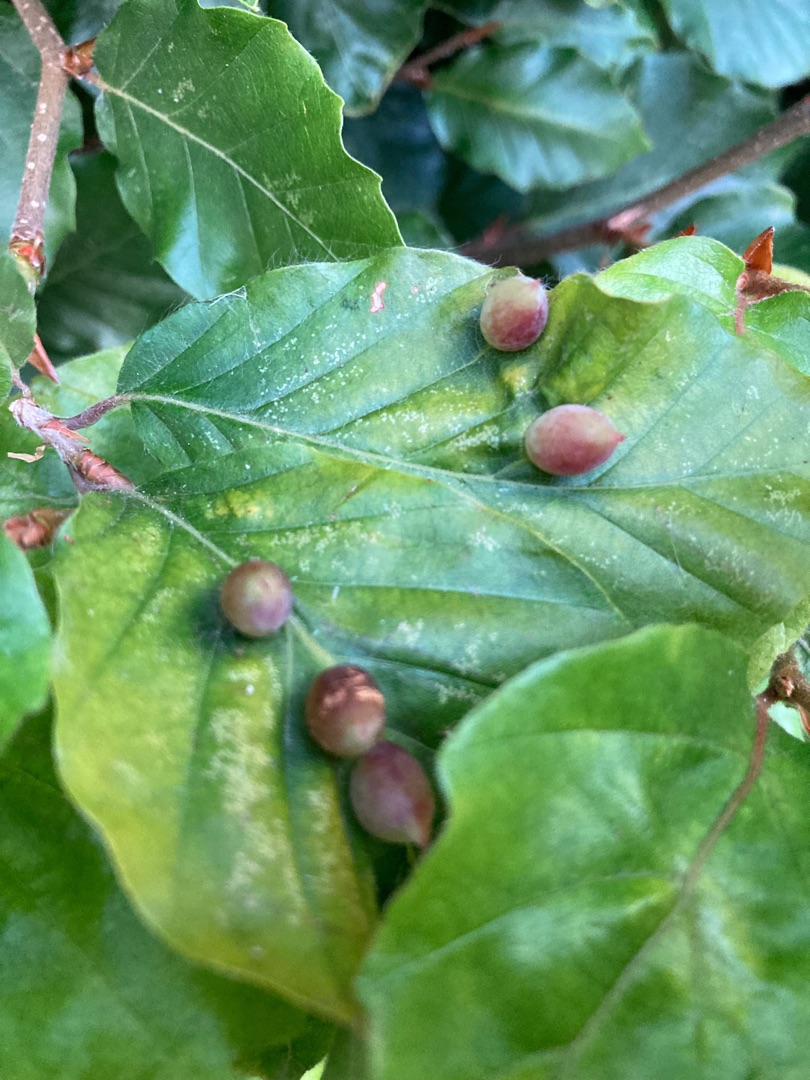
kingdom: Animalia
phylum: Arthropoda
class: Insecta
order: Diptera
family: Cecidomyiidae
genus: Mikiola
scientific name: Mikiola fagi
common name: Bøgegalmyg
